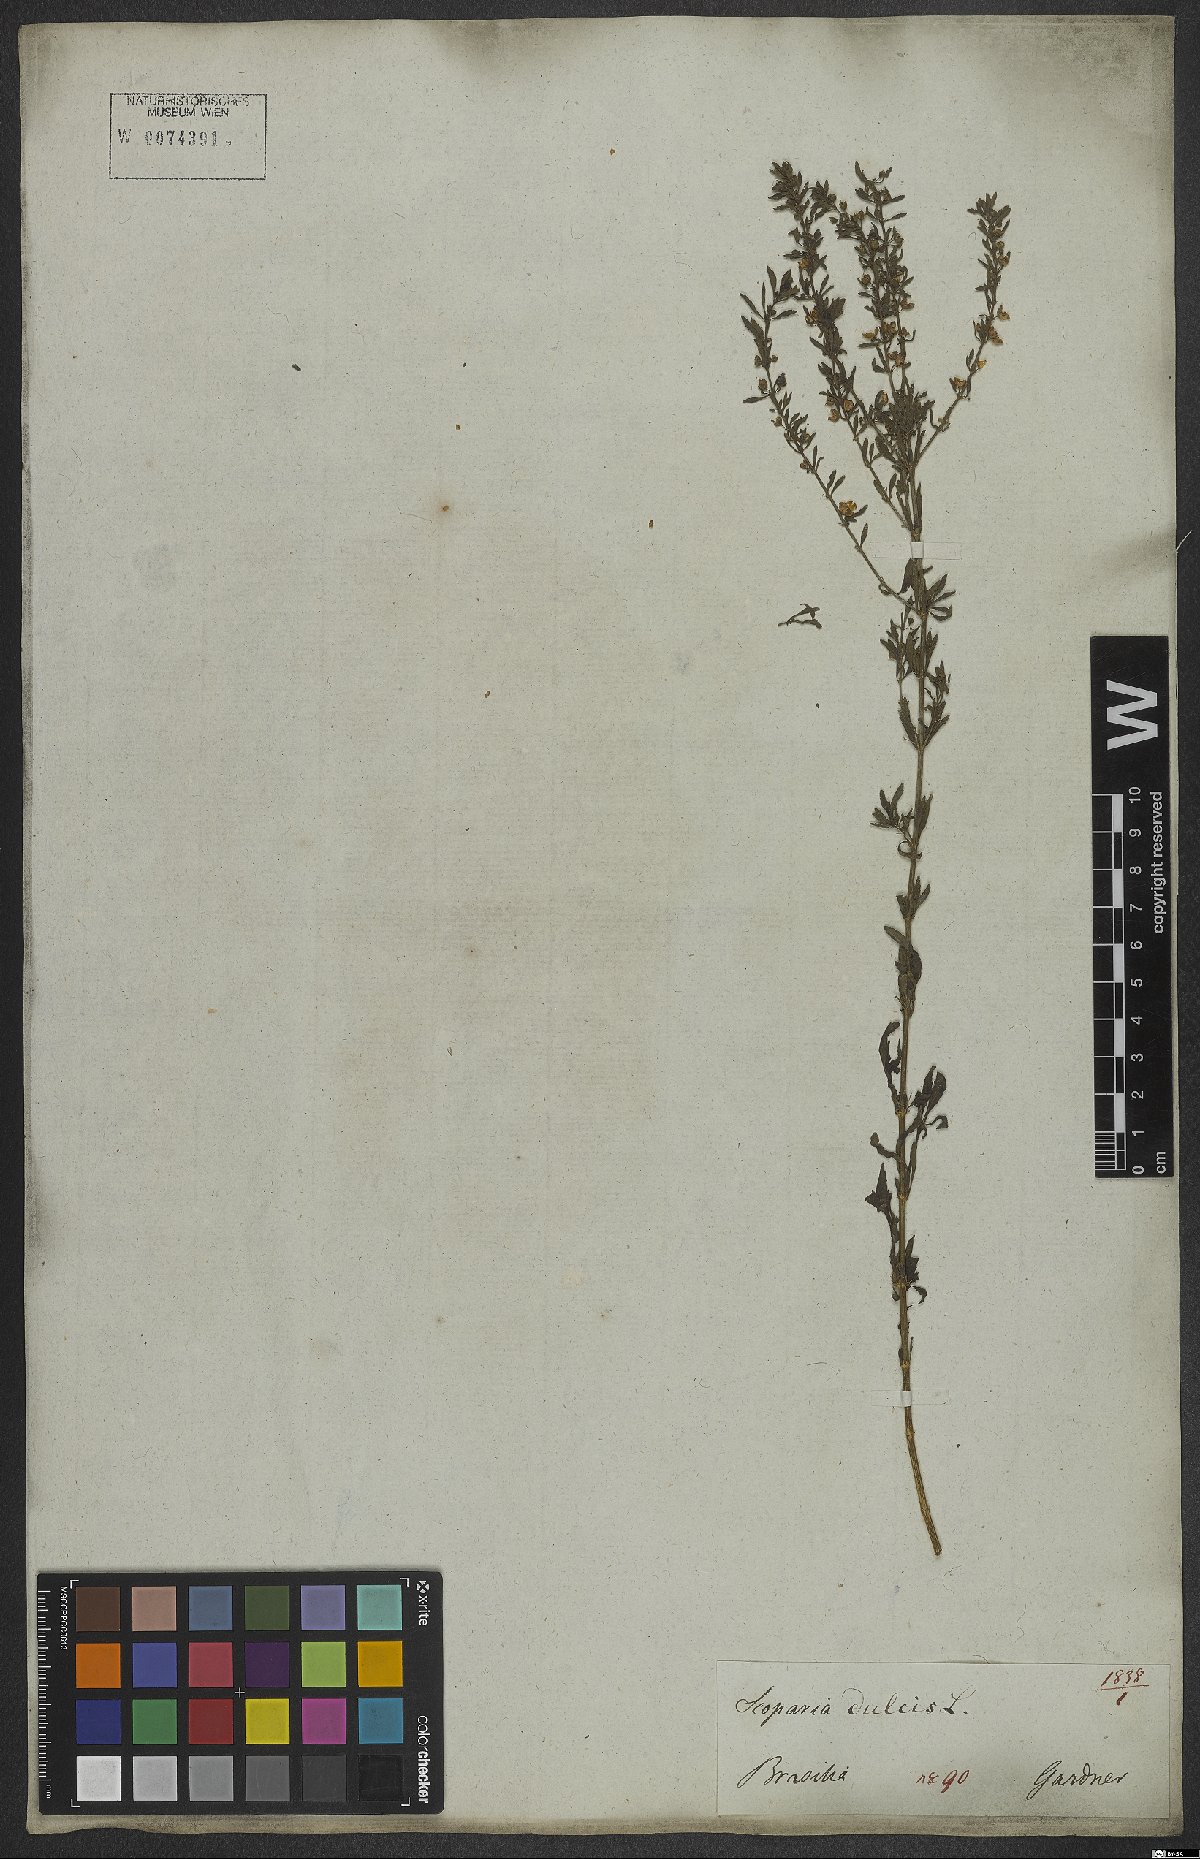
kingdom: Plantae
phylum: Tracheophyta
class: Magnoliopsida
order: Lamiales
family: Plantaginaceae
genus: Scoparia
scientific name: Scoparia dulcis
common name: Scoparia-weed
